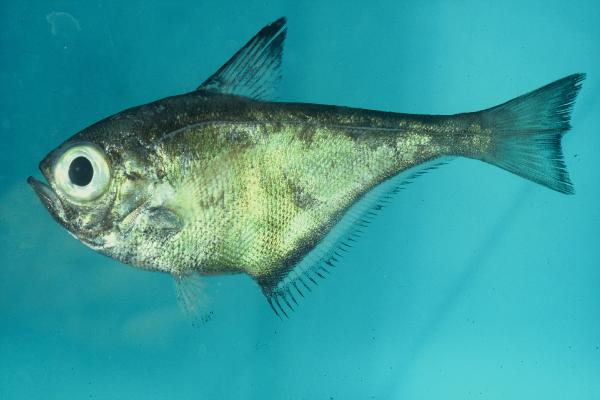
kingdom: Animalia
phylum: Chordata
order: Perciformes
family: Pempheridae
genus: Pempheris
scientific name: Pempheris japonica
